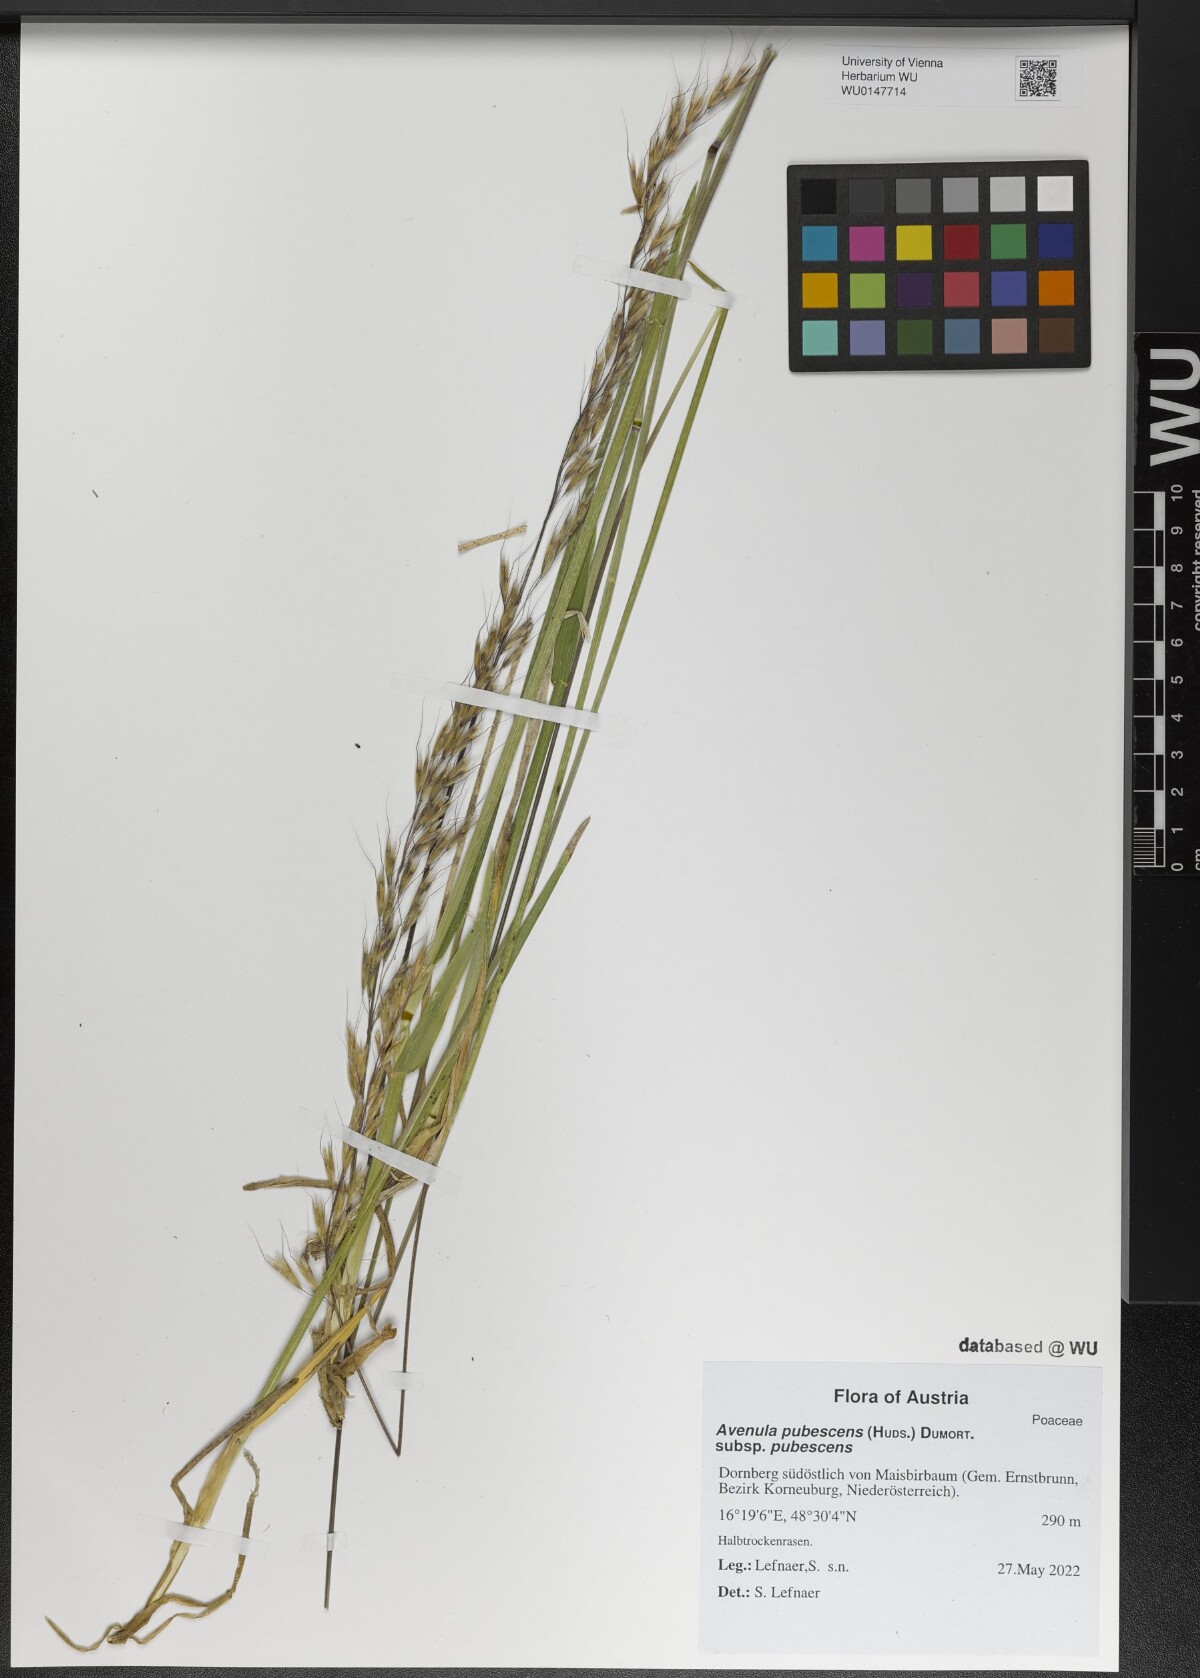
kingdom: Plantae
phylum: Tracheophyta
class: Liliopsida
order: Poales
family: Poaceae
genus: Avenula
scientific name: Avenula pubescens
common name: Downy alpine oatgrass
